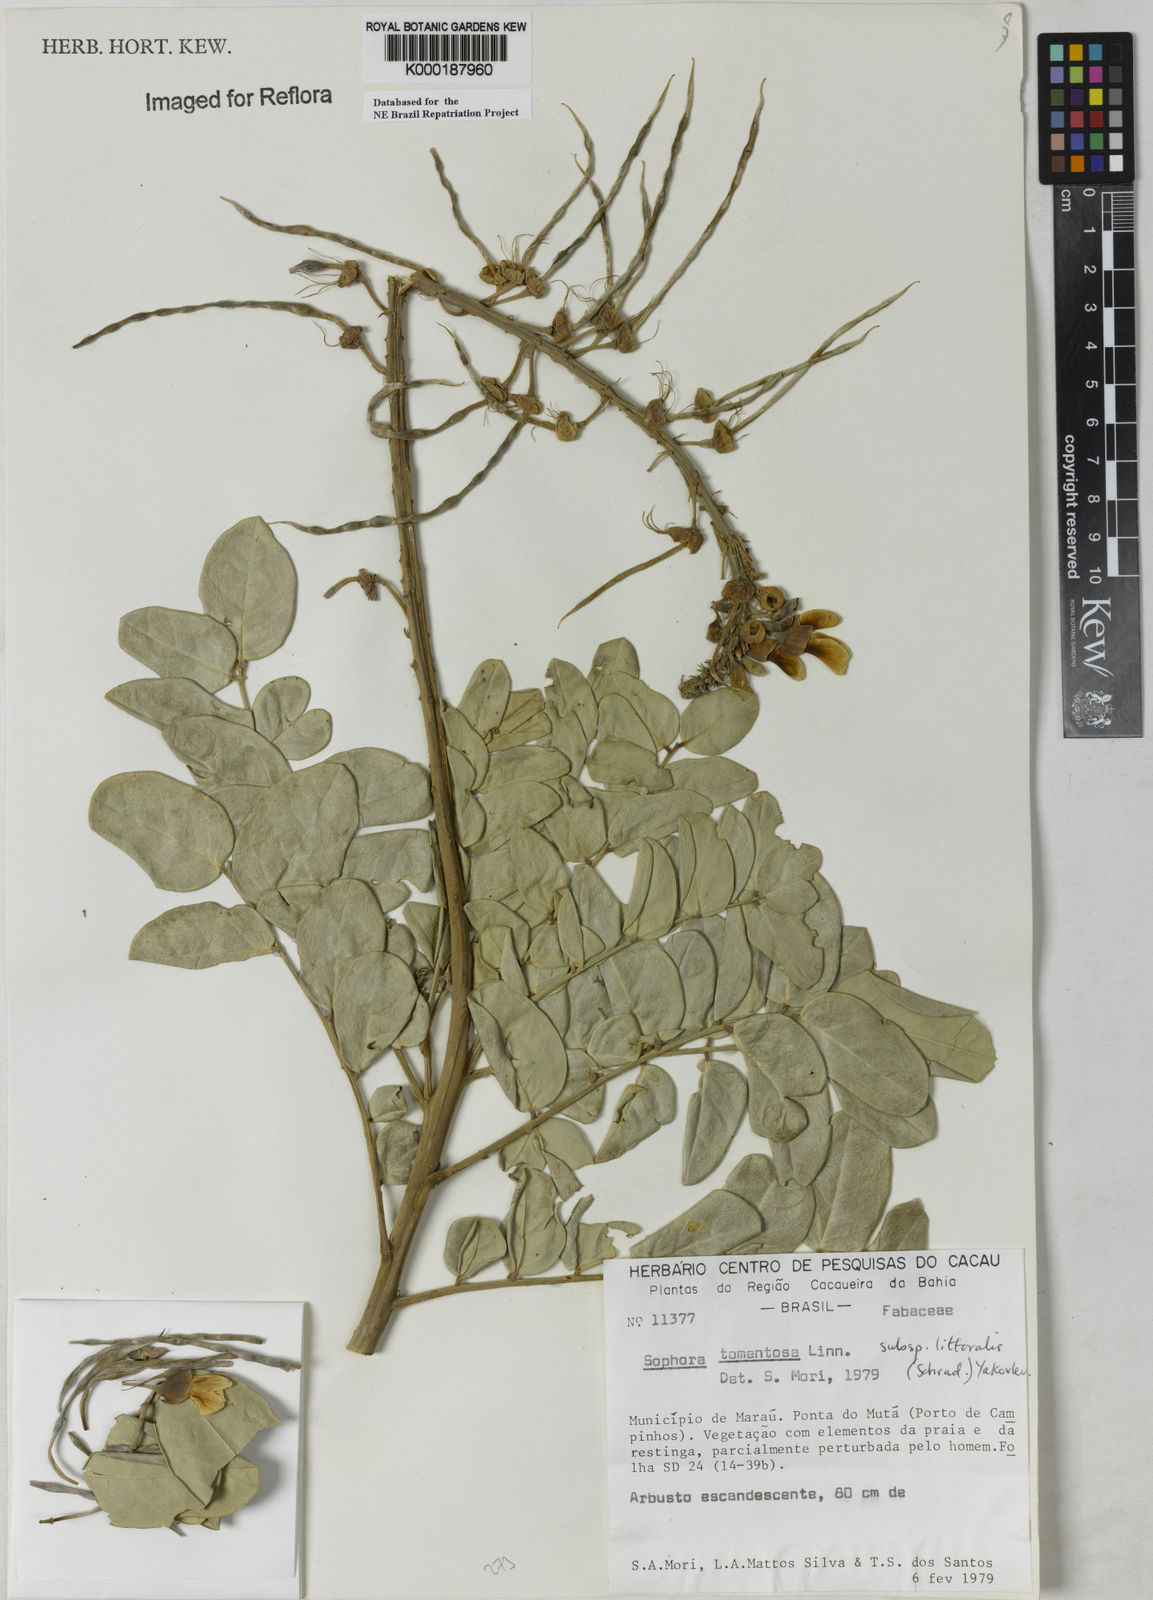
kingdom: Plantae
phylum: Tracheophyta
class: Magnoliopsida
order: Fabales
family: Fabaceae
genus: Sophora
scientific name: Sophora tomentosa
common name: Yellow necklacepod
